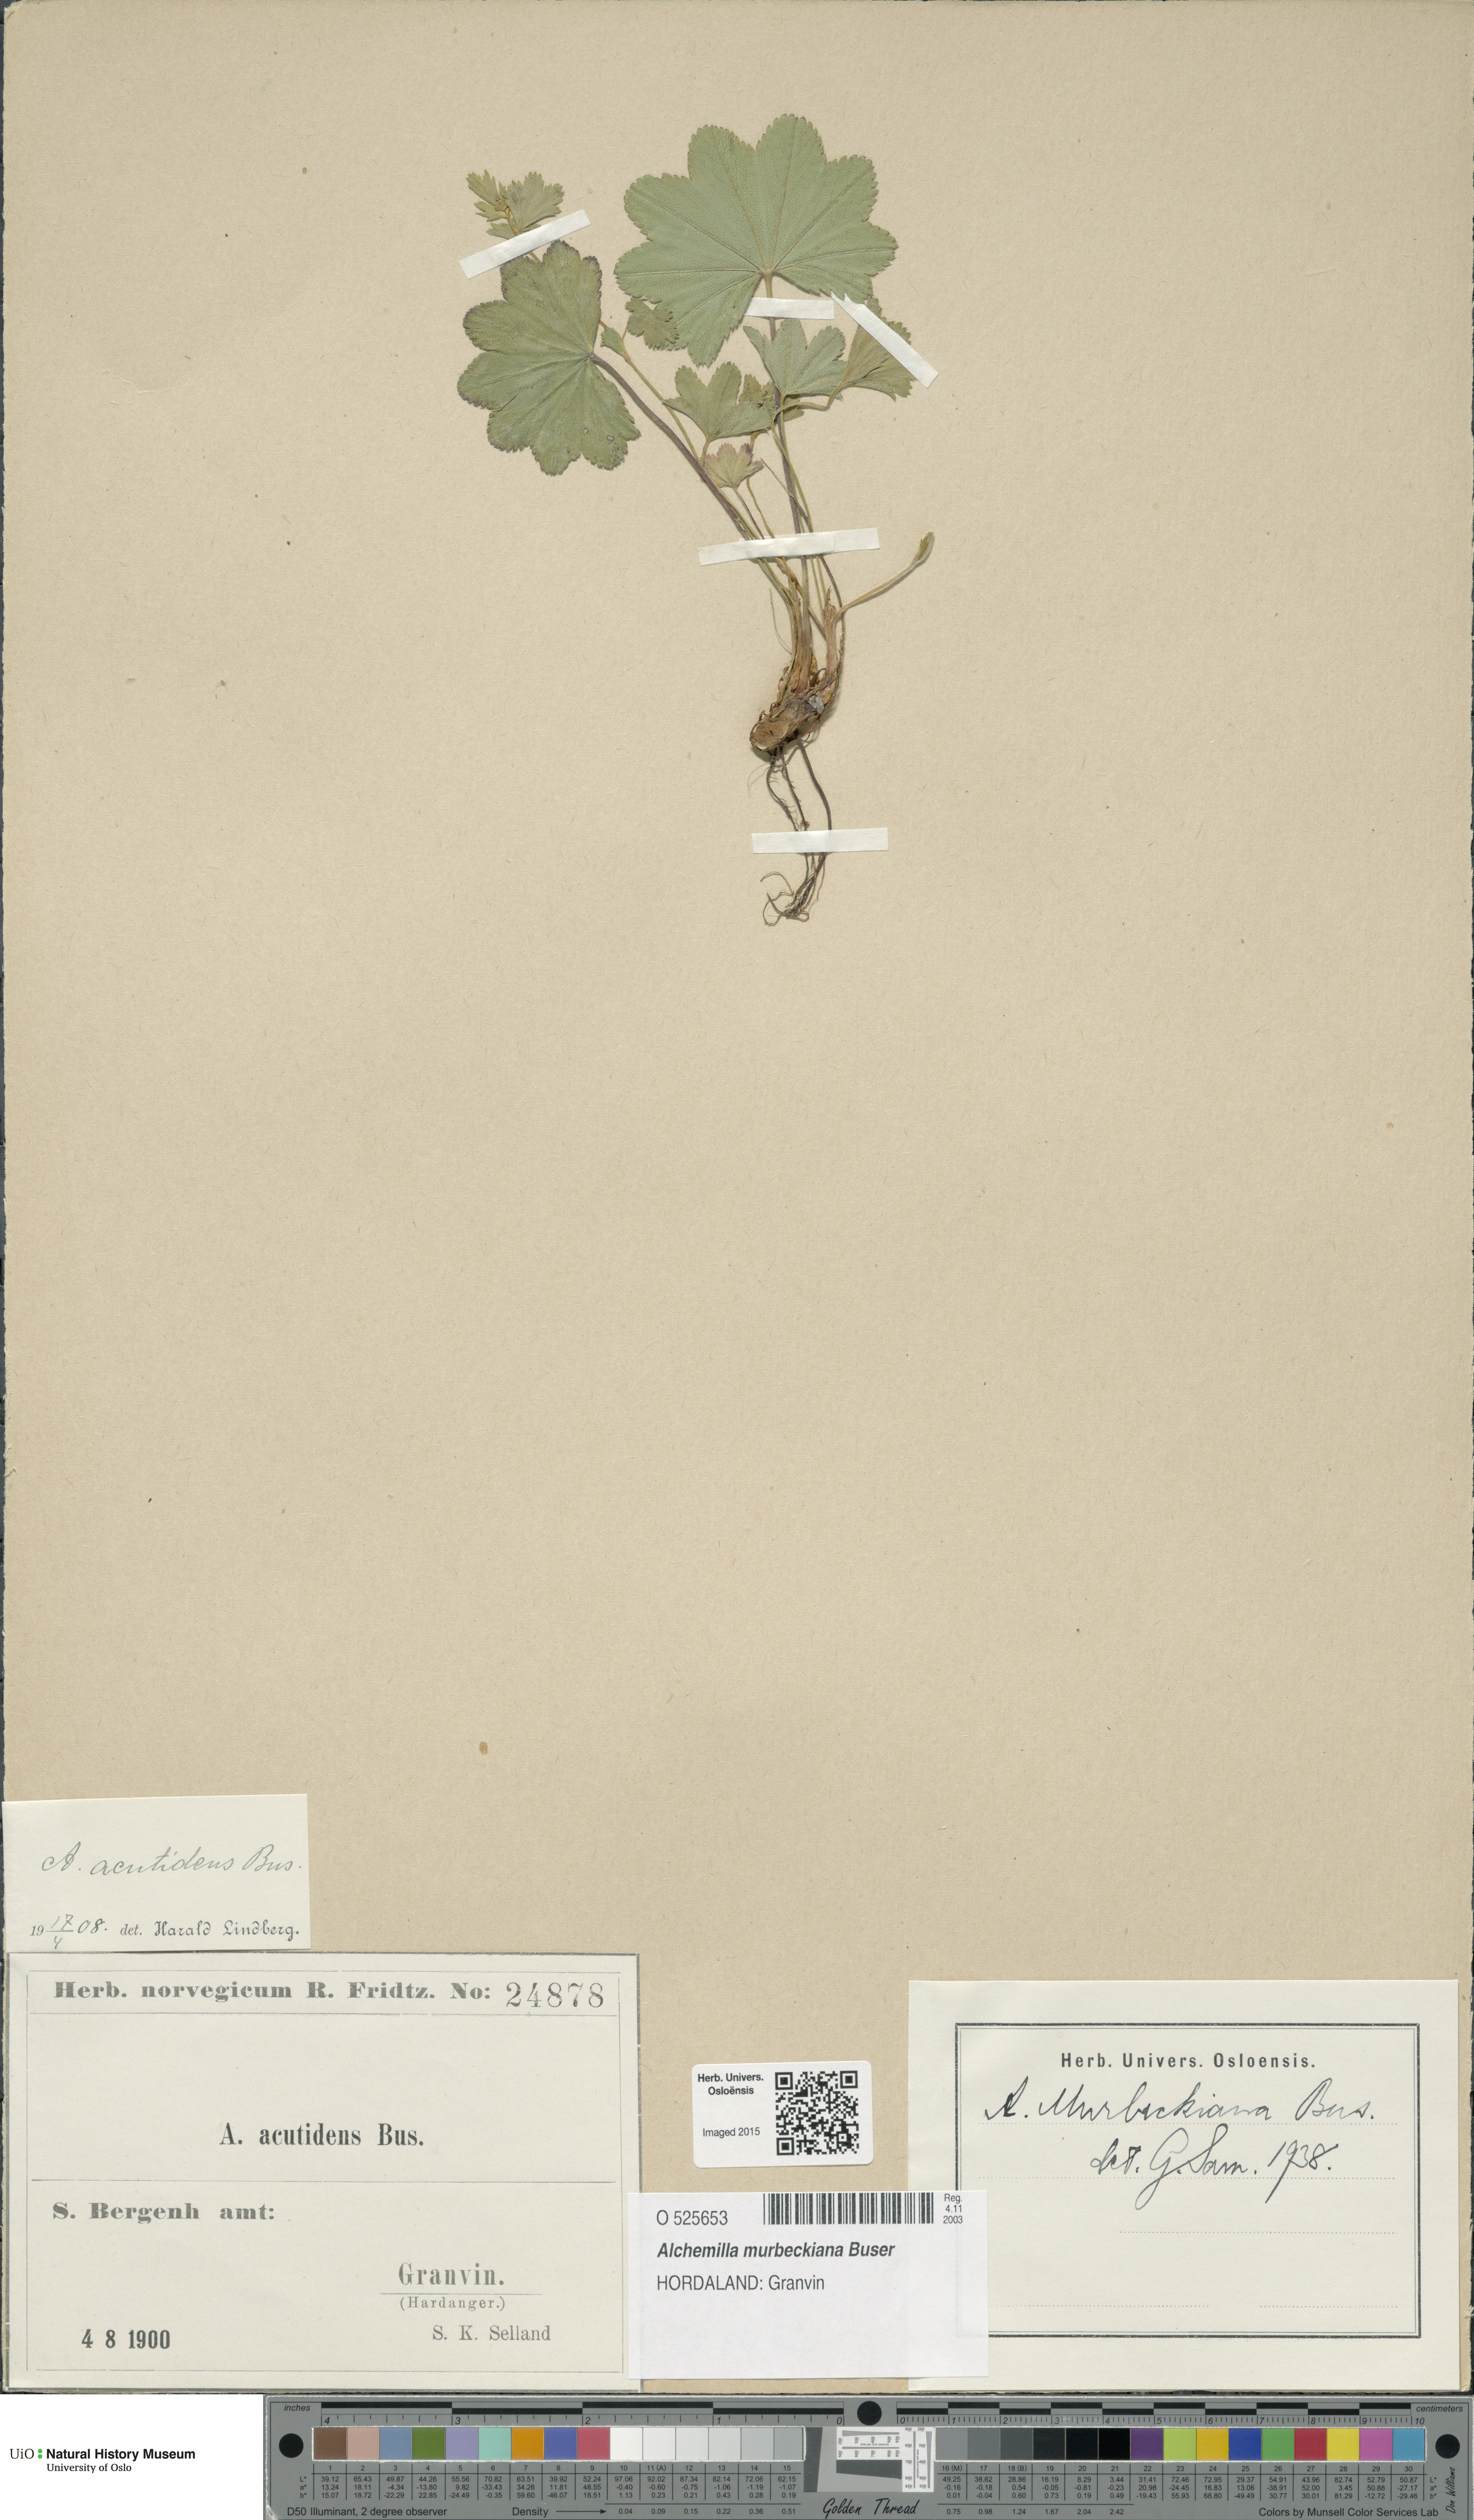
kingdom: Plantae
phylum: Tracheophyta
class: Magnoliopsida
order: Rosales
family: Rosaceae
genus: Alchemilla
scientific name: Alchemilla murbeckiana
